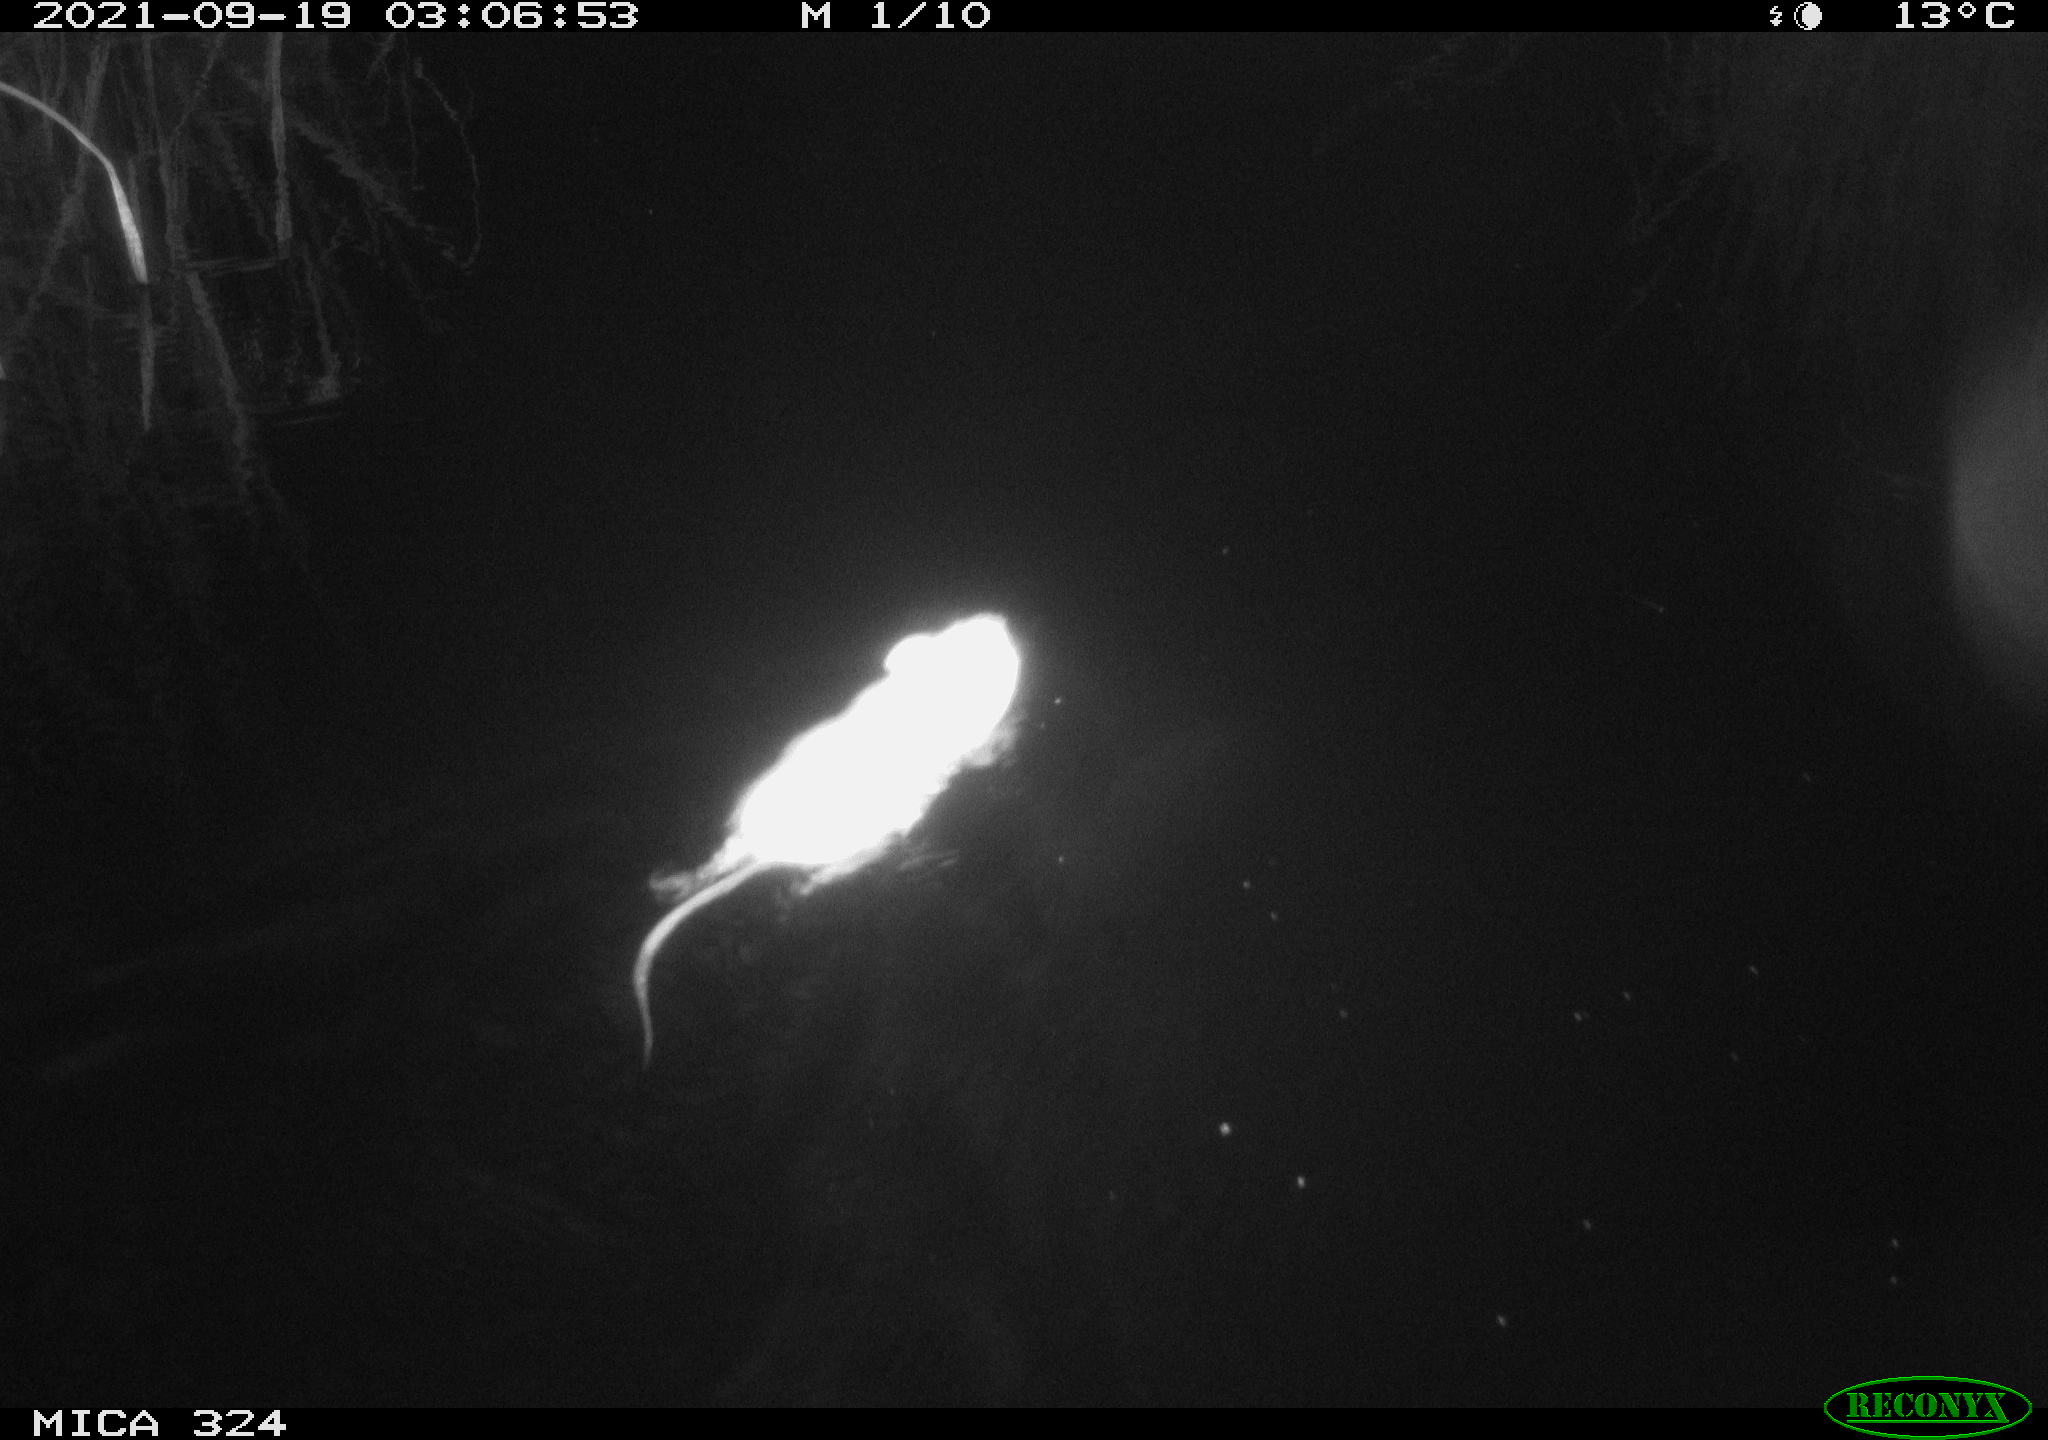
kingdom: Animalia
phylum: Chordata
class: Mammalia
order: Rodentia
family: Cricetidae
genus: Ondatra
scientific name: Ondatra zibethicus
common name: Muskrat
